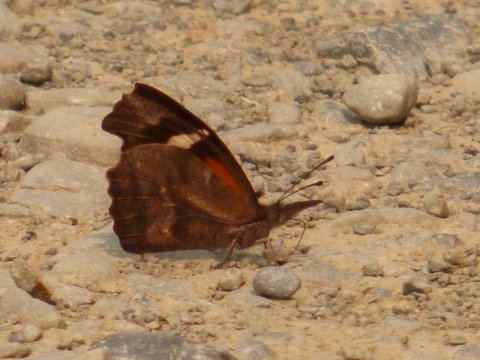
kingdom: Animalia
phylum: Arthropoda
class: Insecta
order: Lepidoptera
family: Nymphalidae
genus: Libytheana
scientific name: Libytheana carinenta
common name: American Snout
